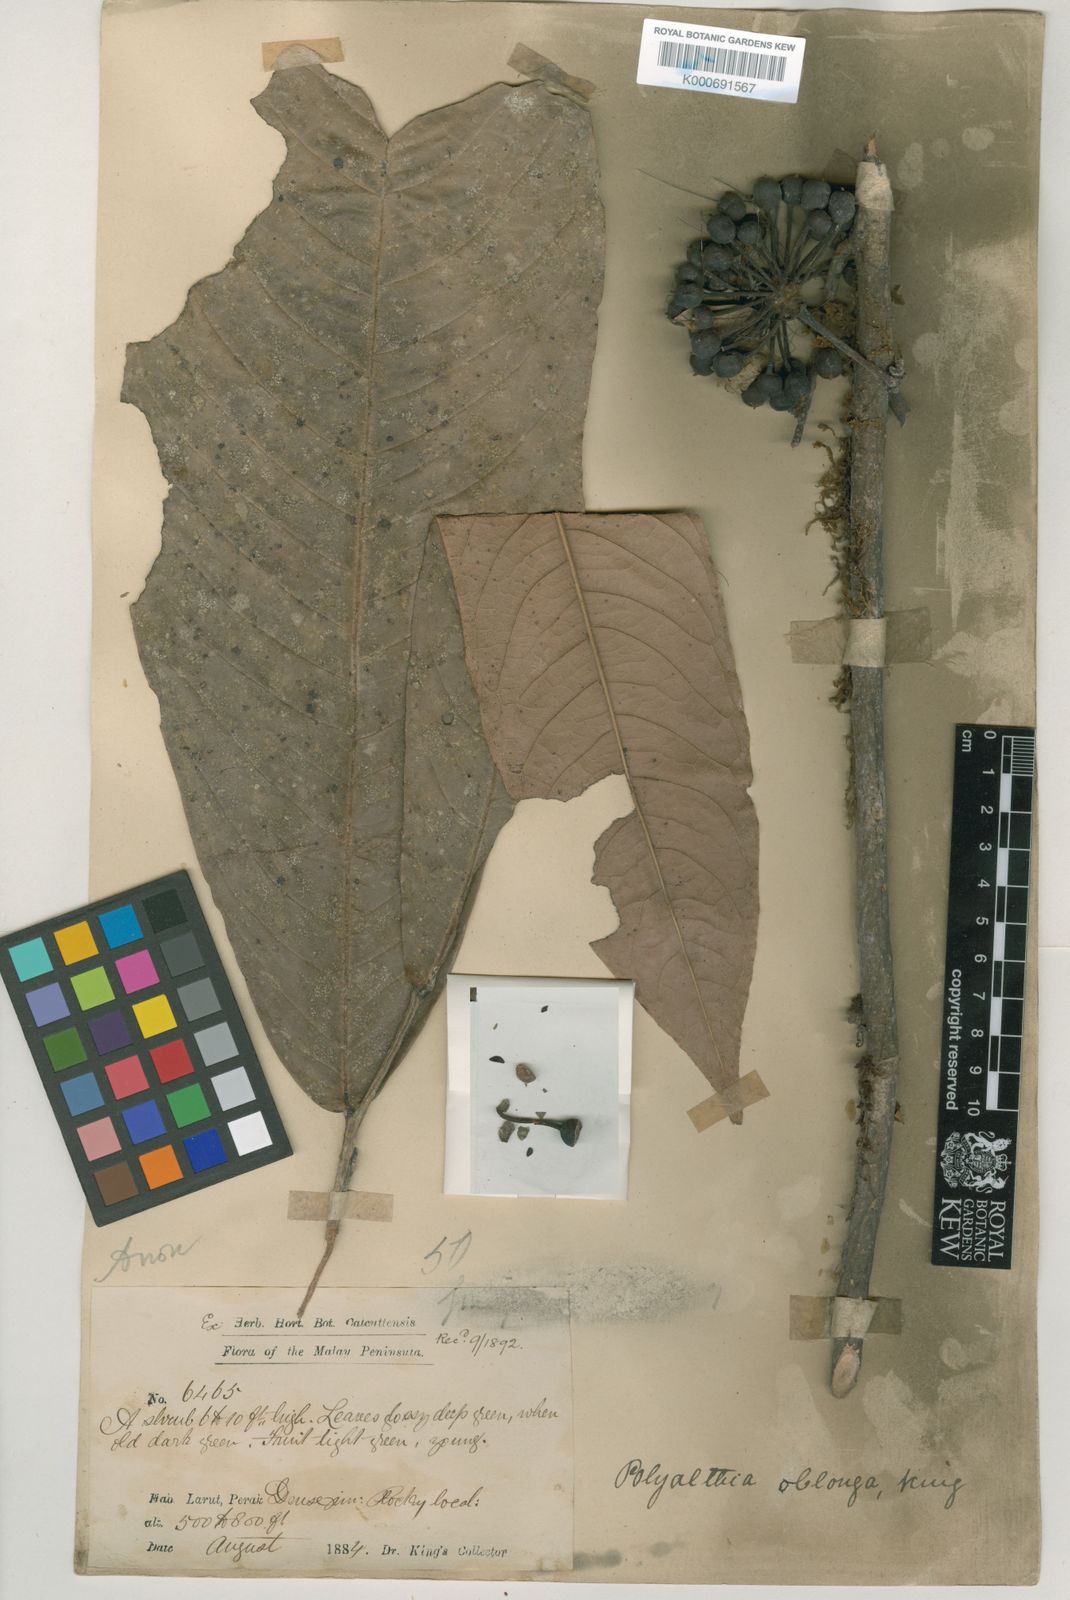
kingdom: Plantae
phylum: Tracheophyta
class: Magnoliopsida
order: Magnoliales
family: Annonaceae
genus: Polyalthia
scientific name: Polyalthia oblonga
